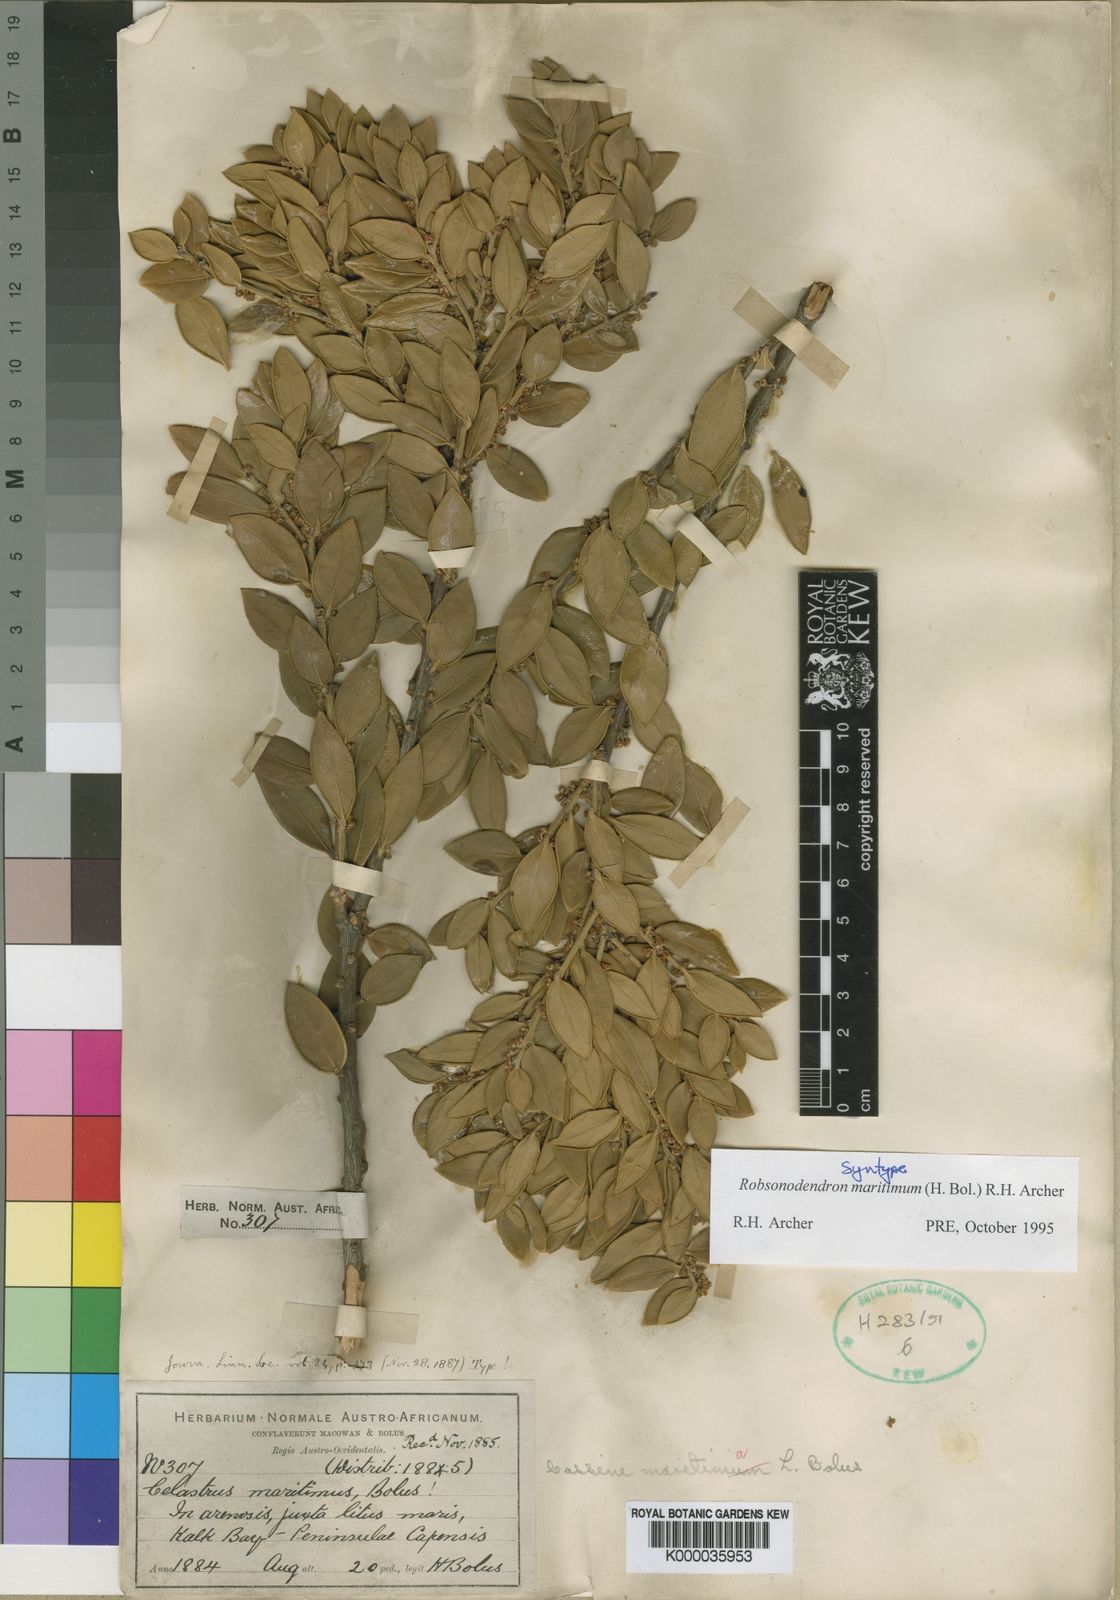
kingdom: Plantae
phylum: Tracheophyta
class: Magnoliopsida
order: Celastrales
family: Celastraceae
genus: Robsonodendron
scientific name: Robsonodendron maritimum
